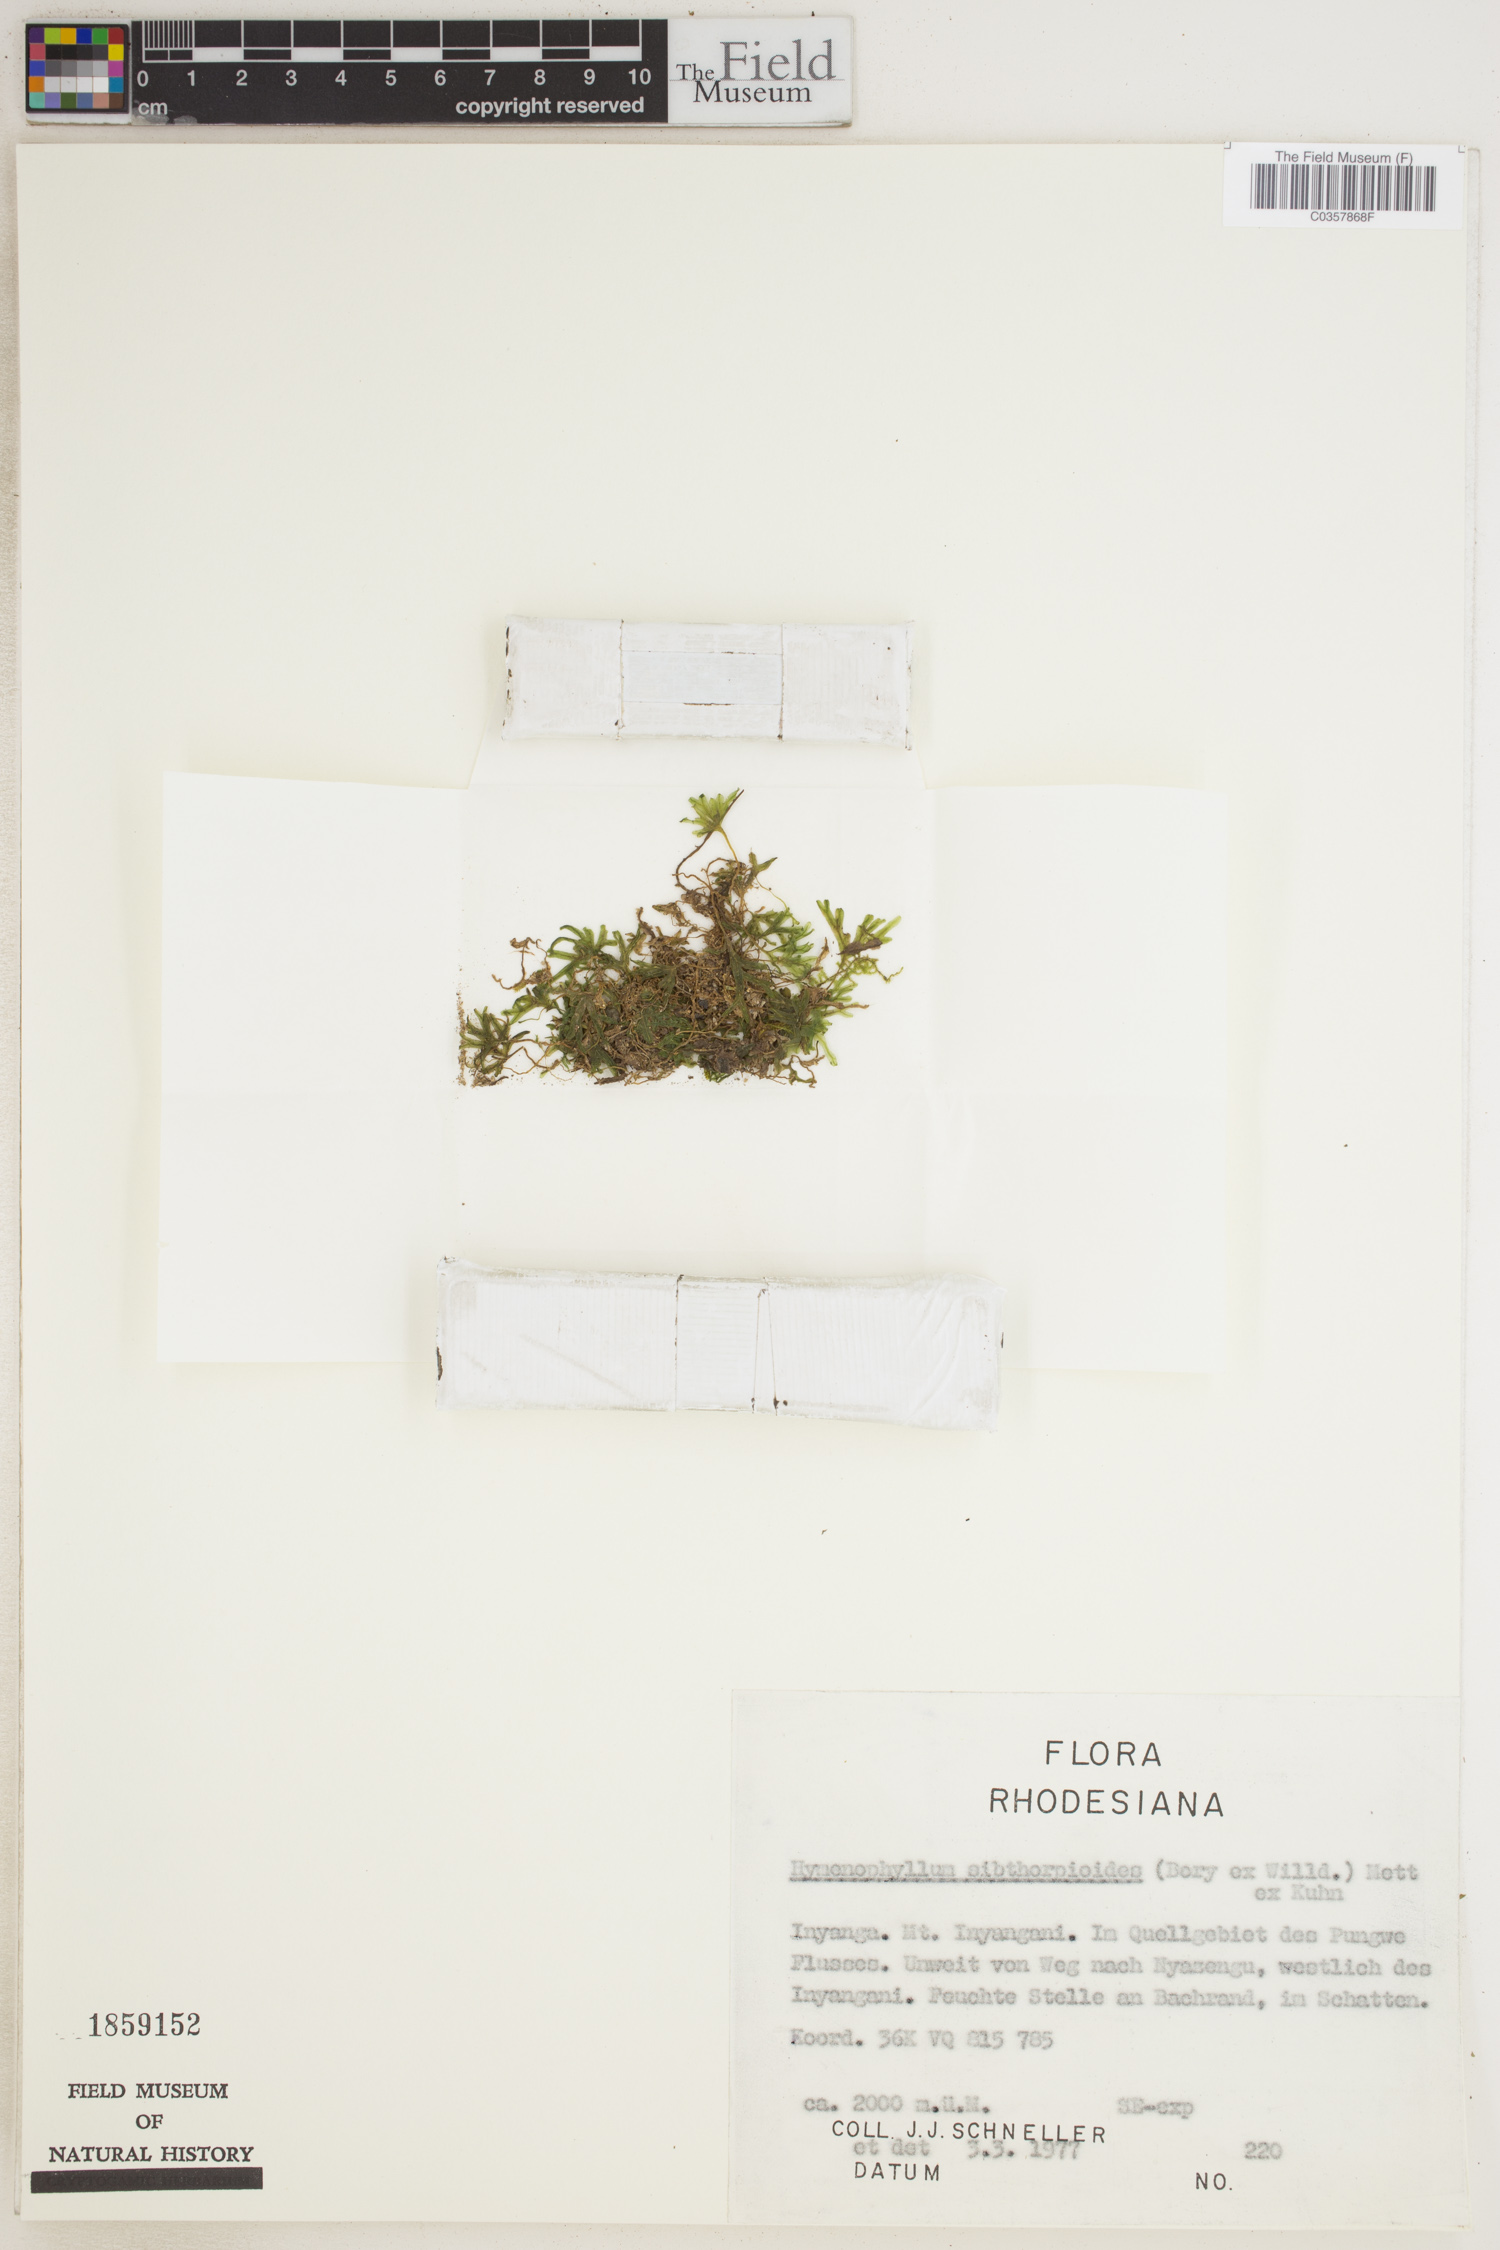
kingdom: Plantae
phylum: Tracheophyta
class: Polypodiopsida
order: Hymenophyllales
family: Hymenophyllaceae
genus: Hymenophyllum
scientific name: Hymenophyllum sibthorpioides
